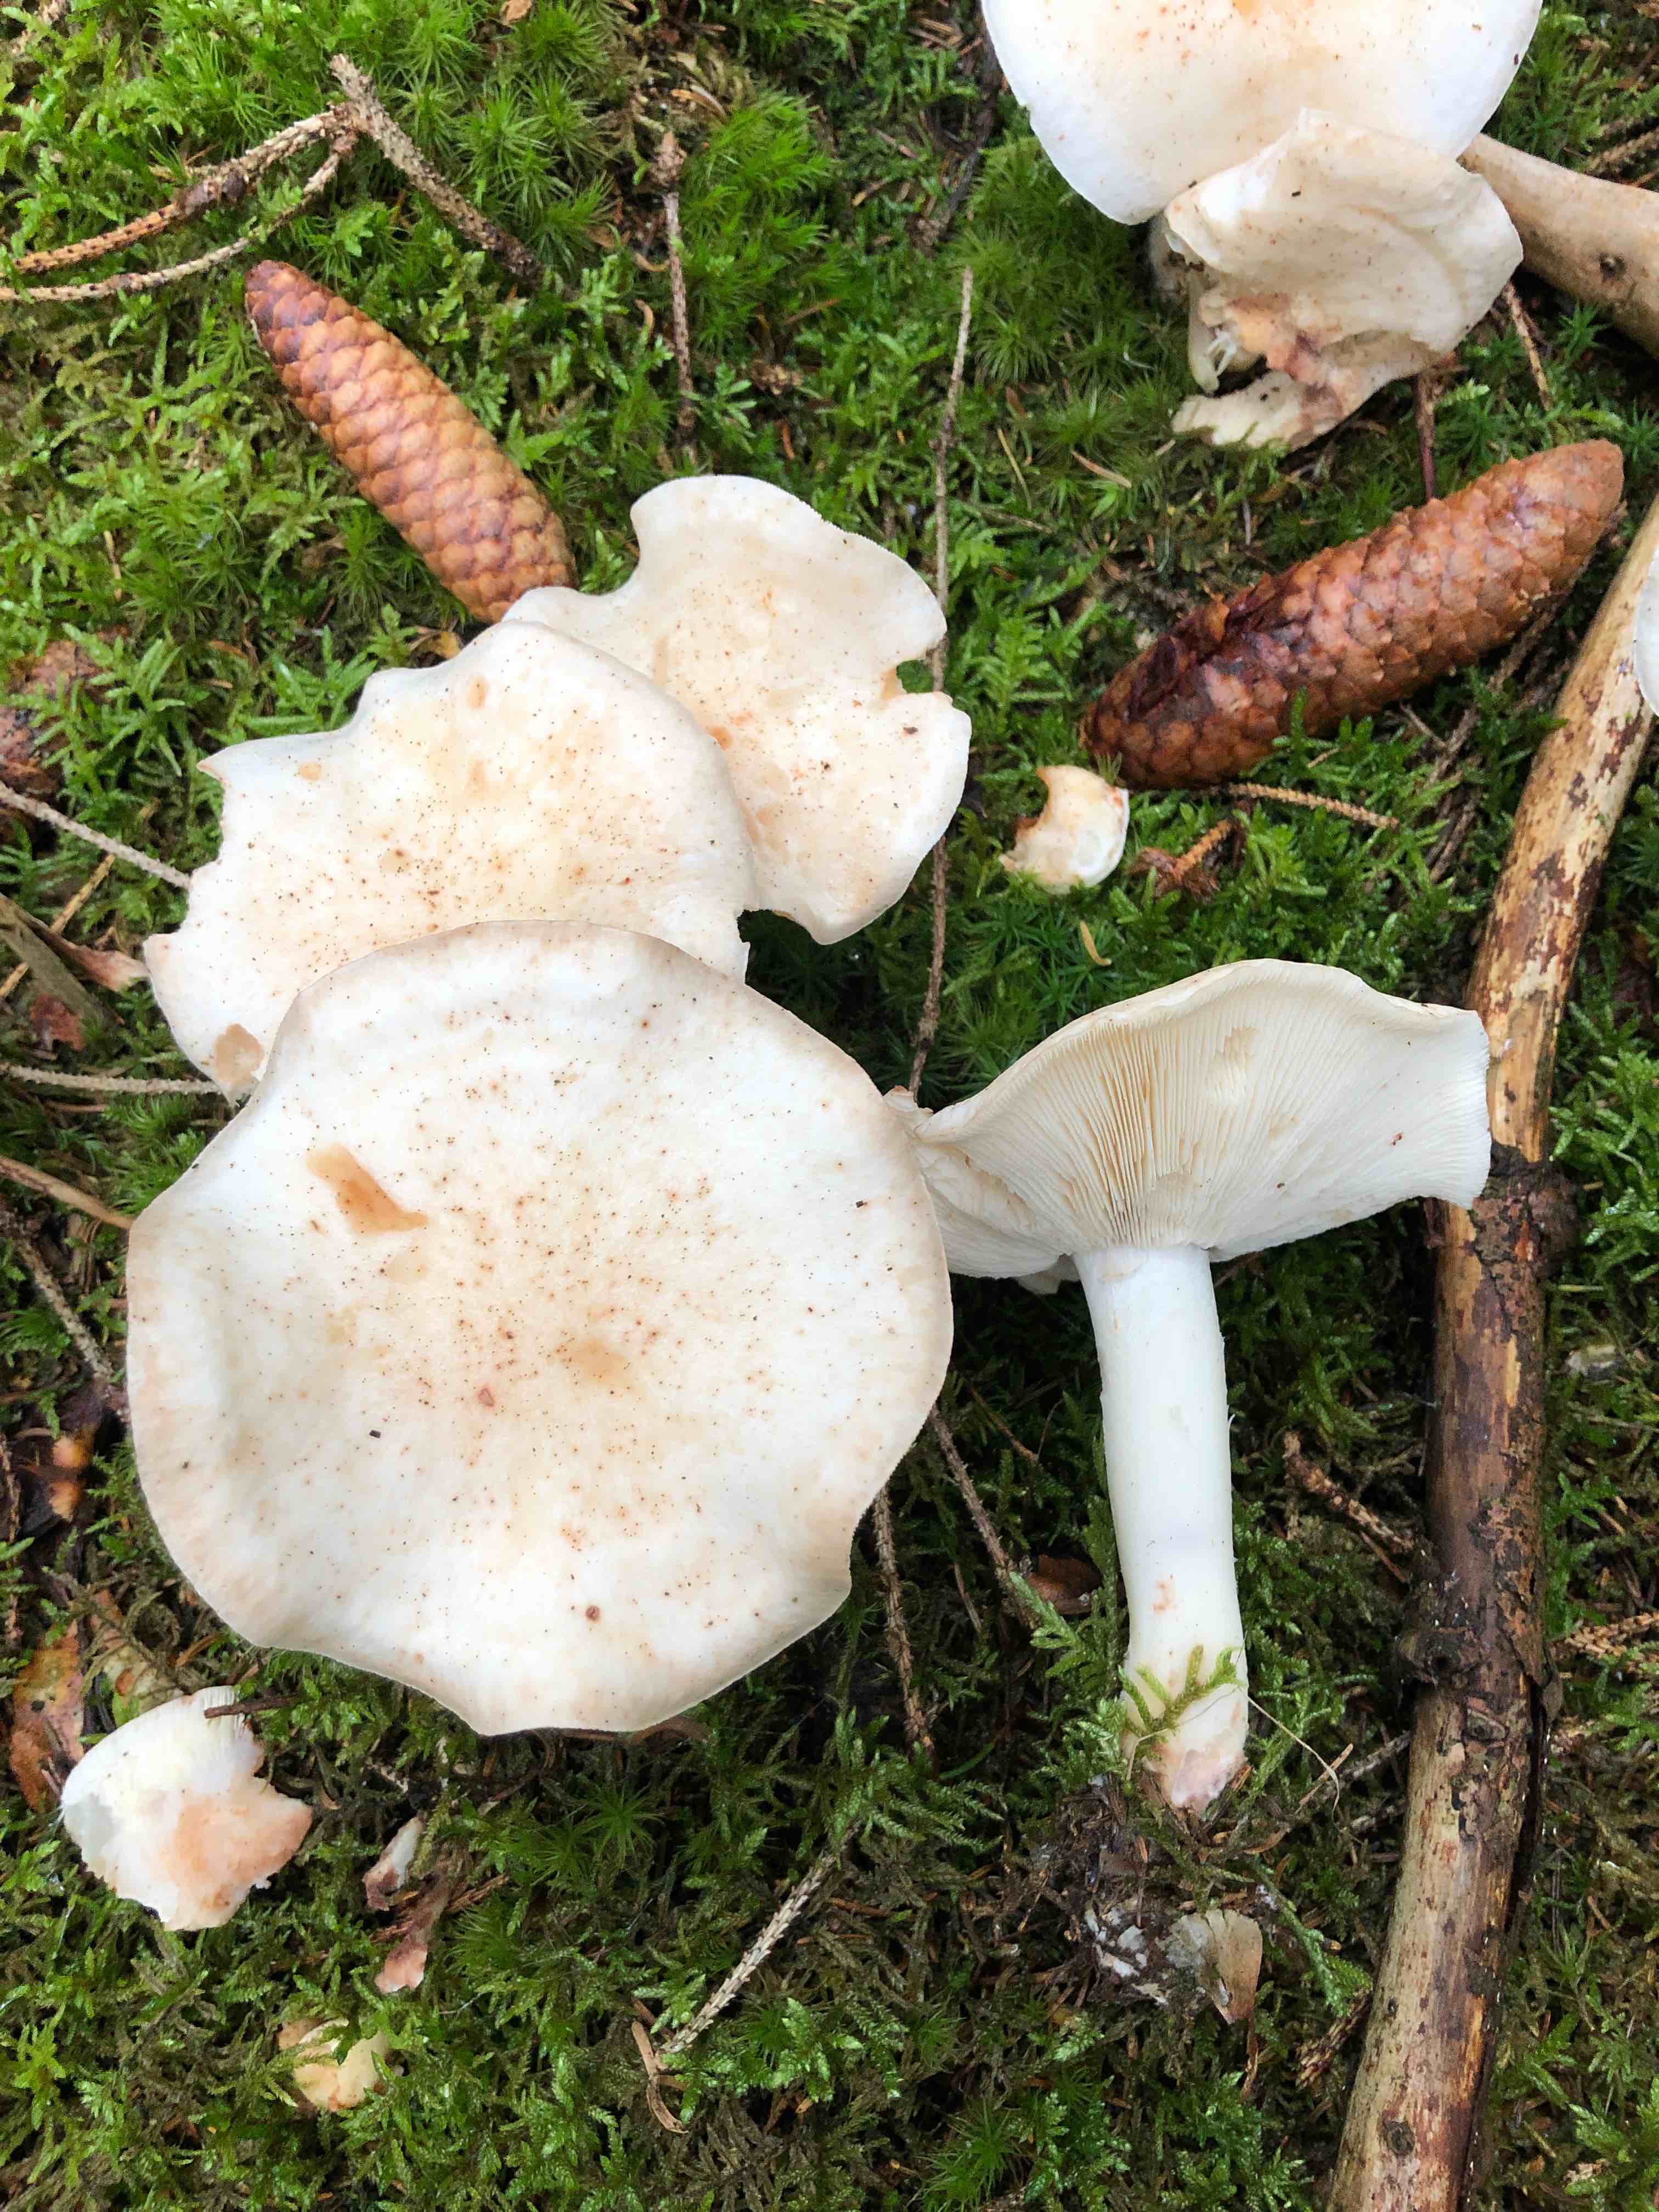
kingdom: Fungi
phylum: Basidiomycota
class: Agaricomycetes
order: Agaricales
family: Omphalotaceae
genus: Rhodocollybia
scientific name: Rhodocollybia maculata
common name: plettet fladhat
